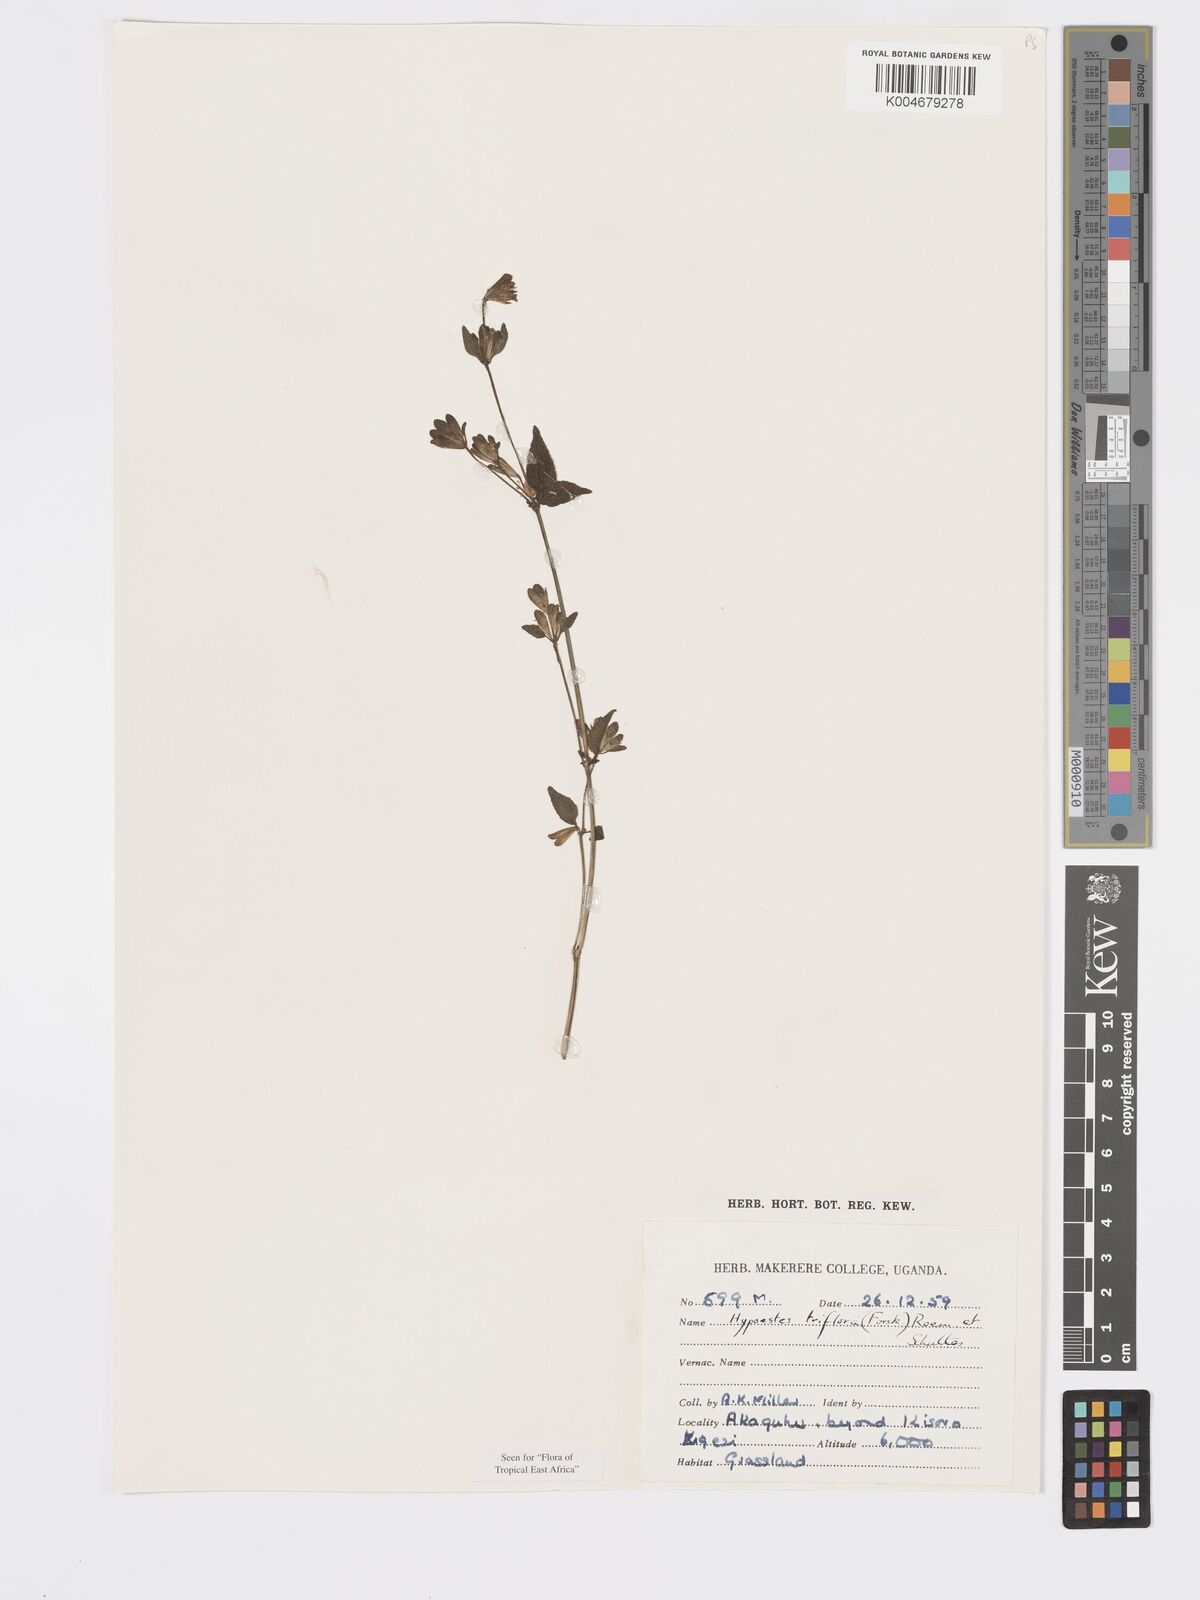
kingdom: Plantae
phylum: Tracheophyta
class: Magnoliopsida
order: Lamiales
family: Acanthaceae
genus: Hypoestes
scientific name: Hypoestes triflora
